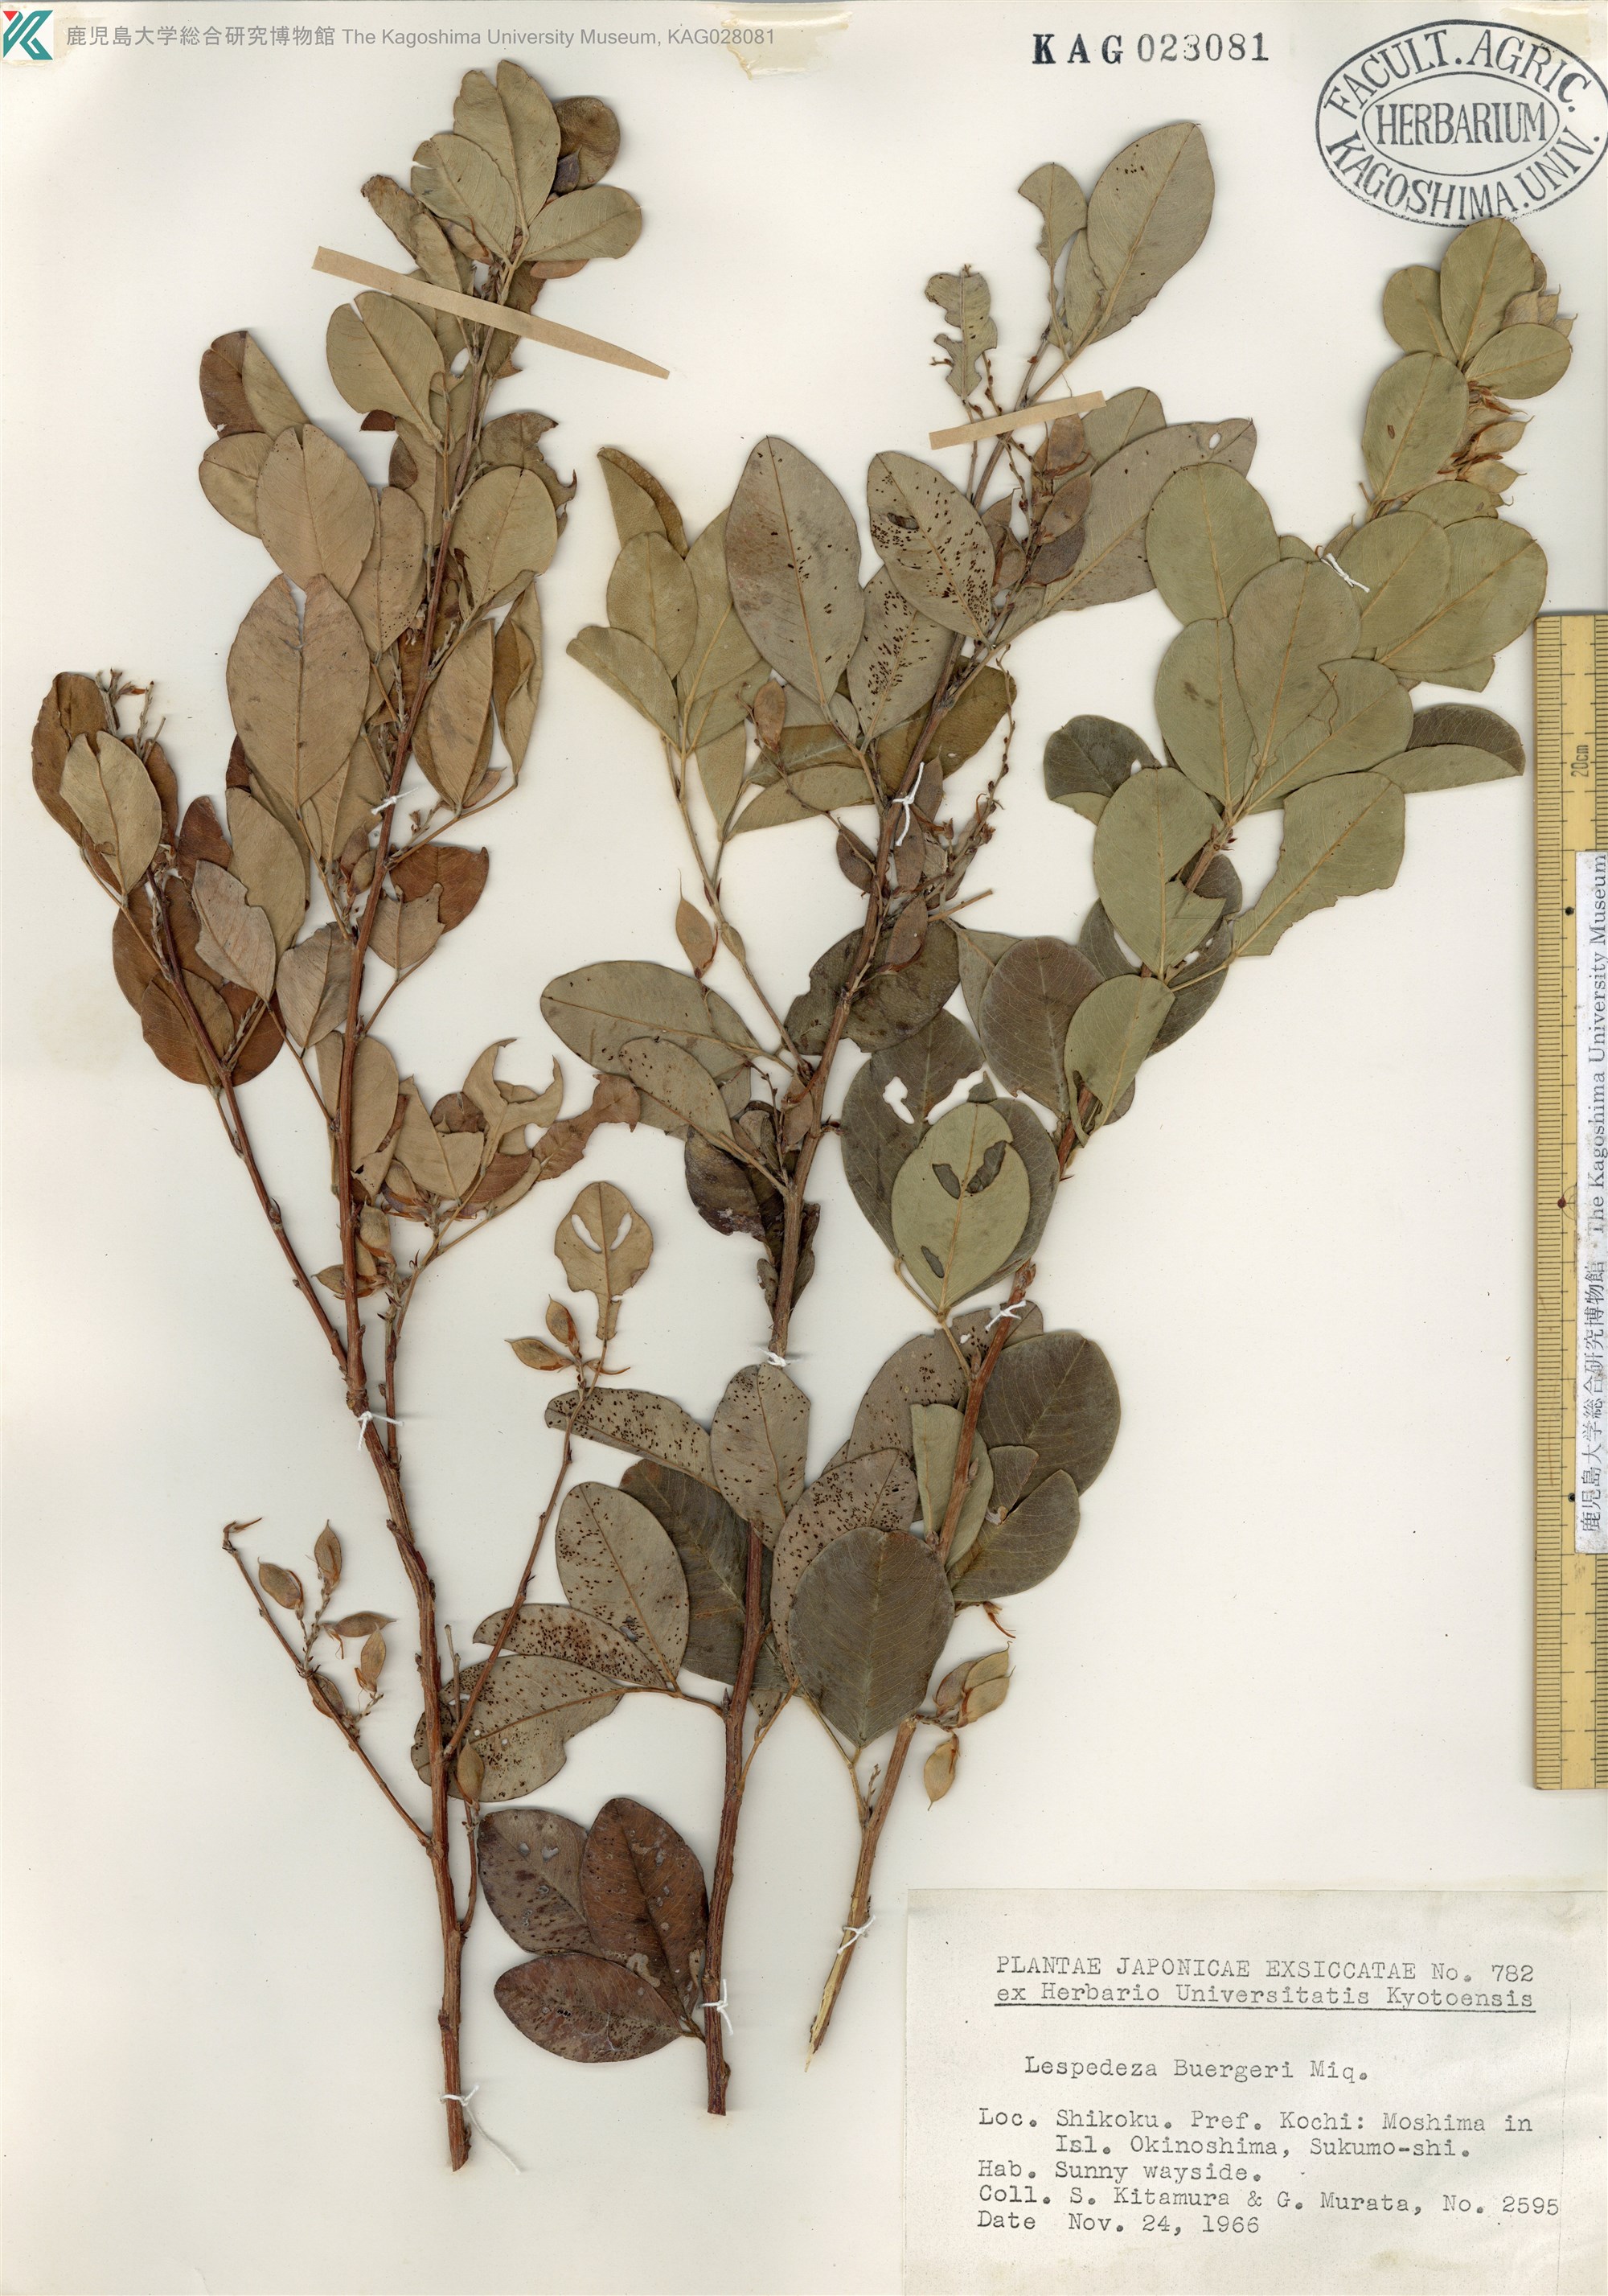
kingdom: Plantae
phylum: Tracheophyta
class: Magnoliopsida
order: Fabales
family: Fabaceae
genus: Lespedeza
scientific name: Lespedeza buergeri
